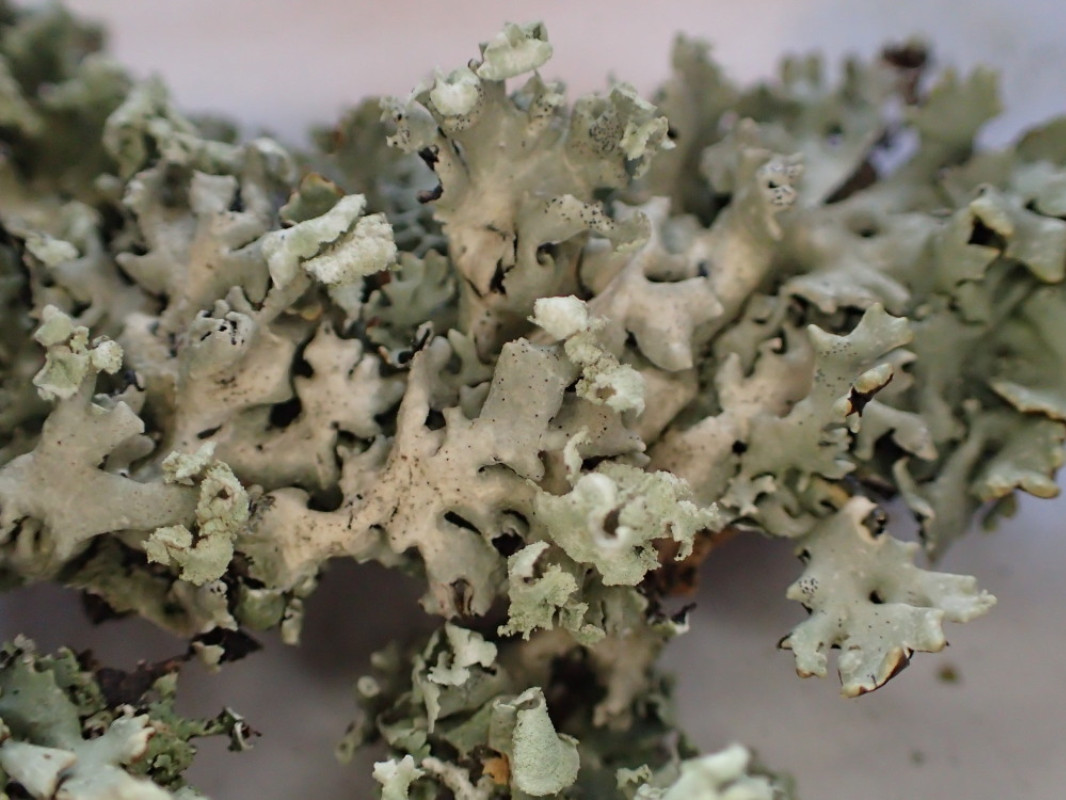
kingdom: Fungi
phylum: Ascomycota
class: Lecanoromycetes
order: Lecanorales
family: Parmeliaceae
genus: Hypogymnia
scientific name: Hypogymnia physodes
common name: almindelig kvistlav
